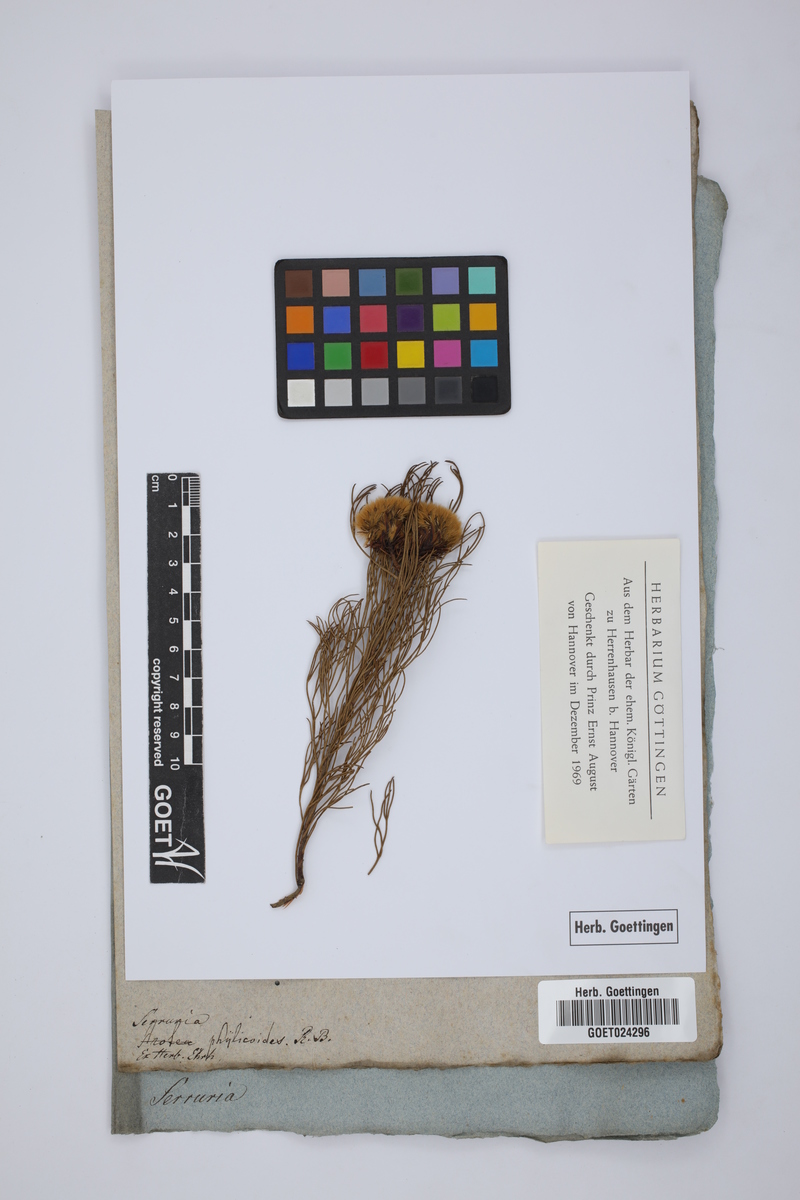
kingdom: Plantae
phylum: Tracheophyta
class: Magnoliopsida
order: Proteales
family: Proteaceae
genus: Serruria
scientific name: Serruria phylicoides
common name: Bearded spiderhead
